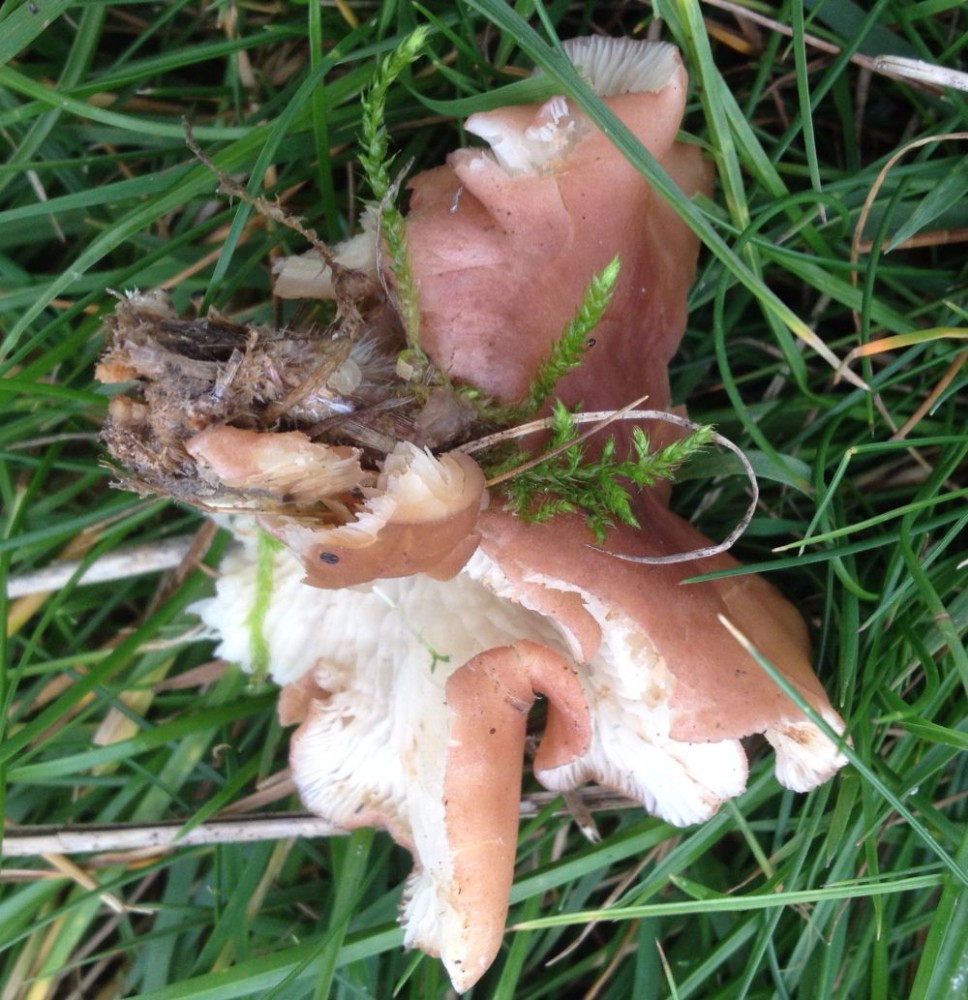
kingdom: Fungi
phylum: Basidiomycota
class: Agaricomycetes
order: Agaricales
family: Lyophyllaceae
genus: Calocybe
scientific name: Calocybe carnea
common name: rosa fagerhat
